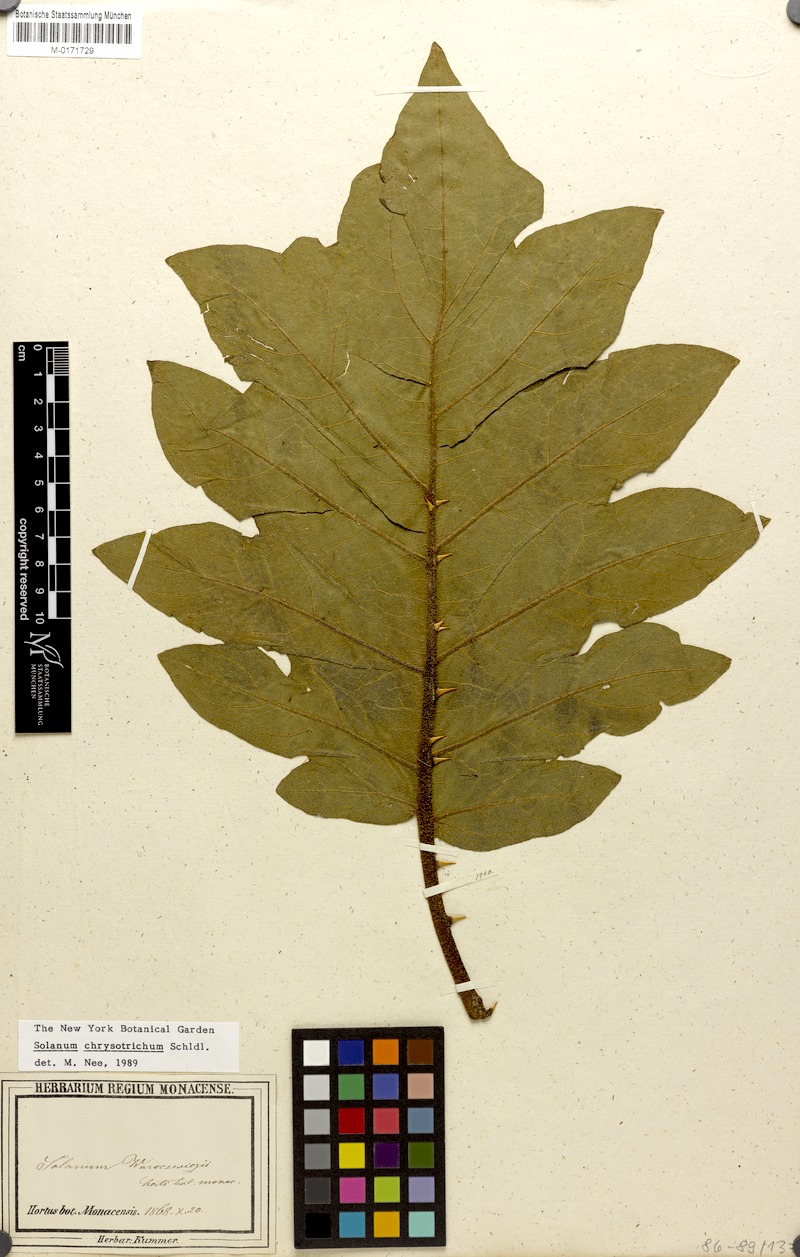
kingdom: Plantae
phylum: Tracheophyta
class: Magnoliopsida
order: Solanales
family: Solanaceae
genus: Solanum
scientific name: Solanum chrysotrichum
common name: Nightshade
